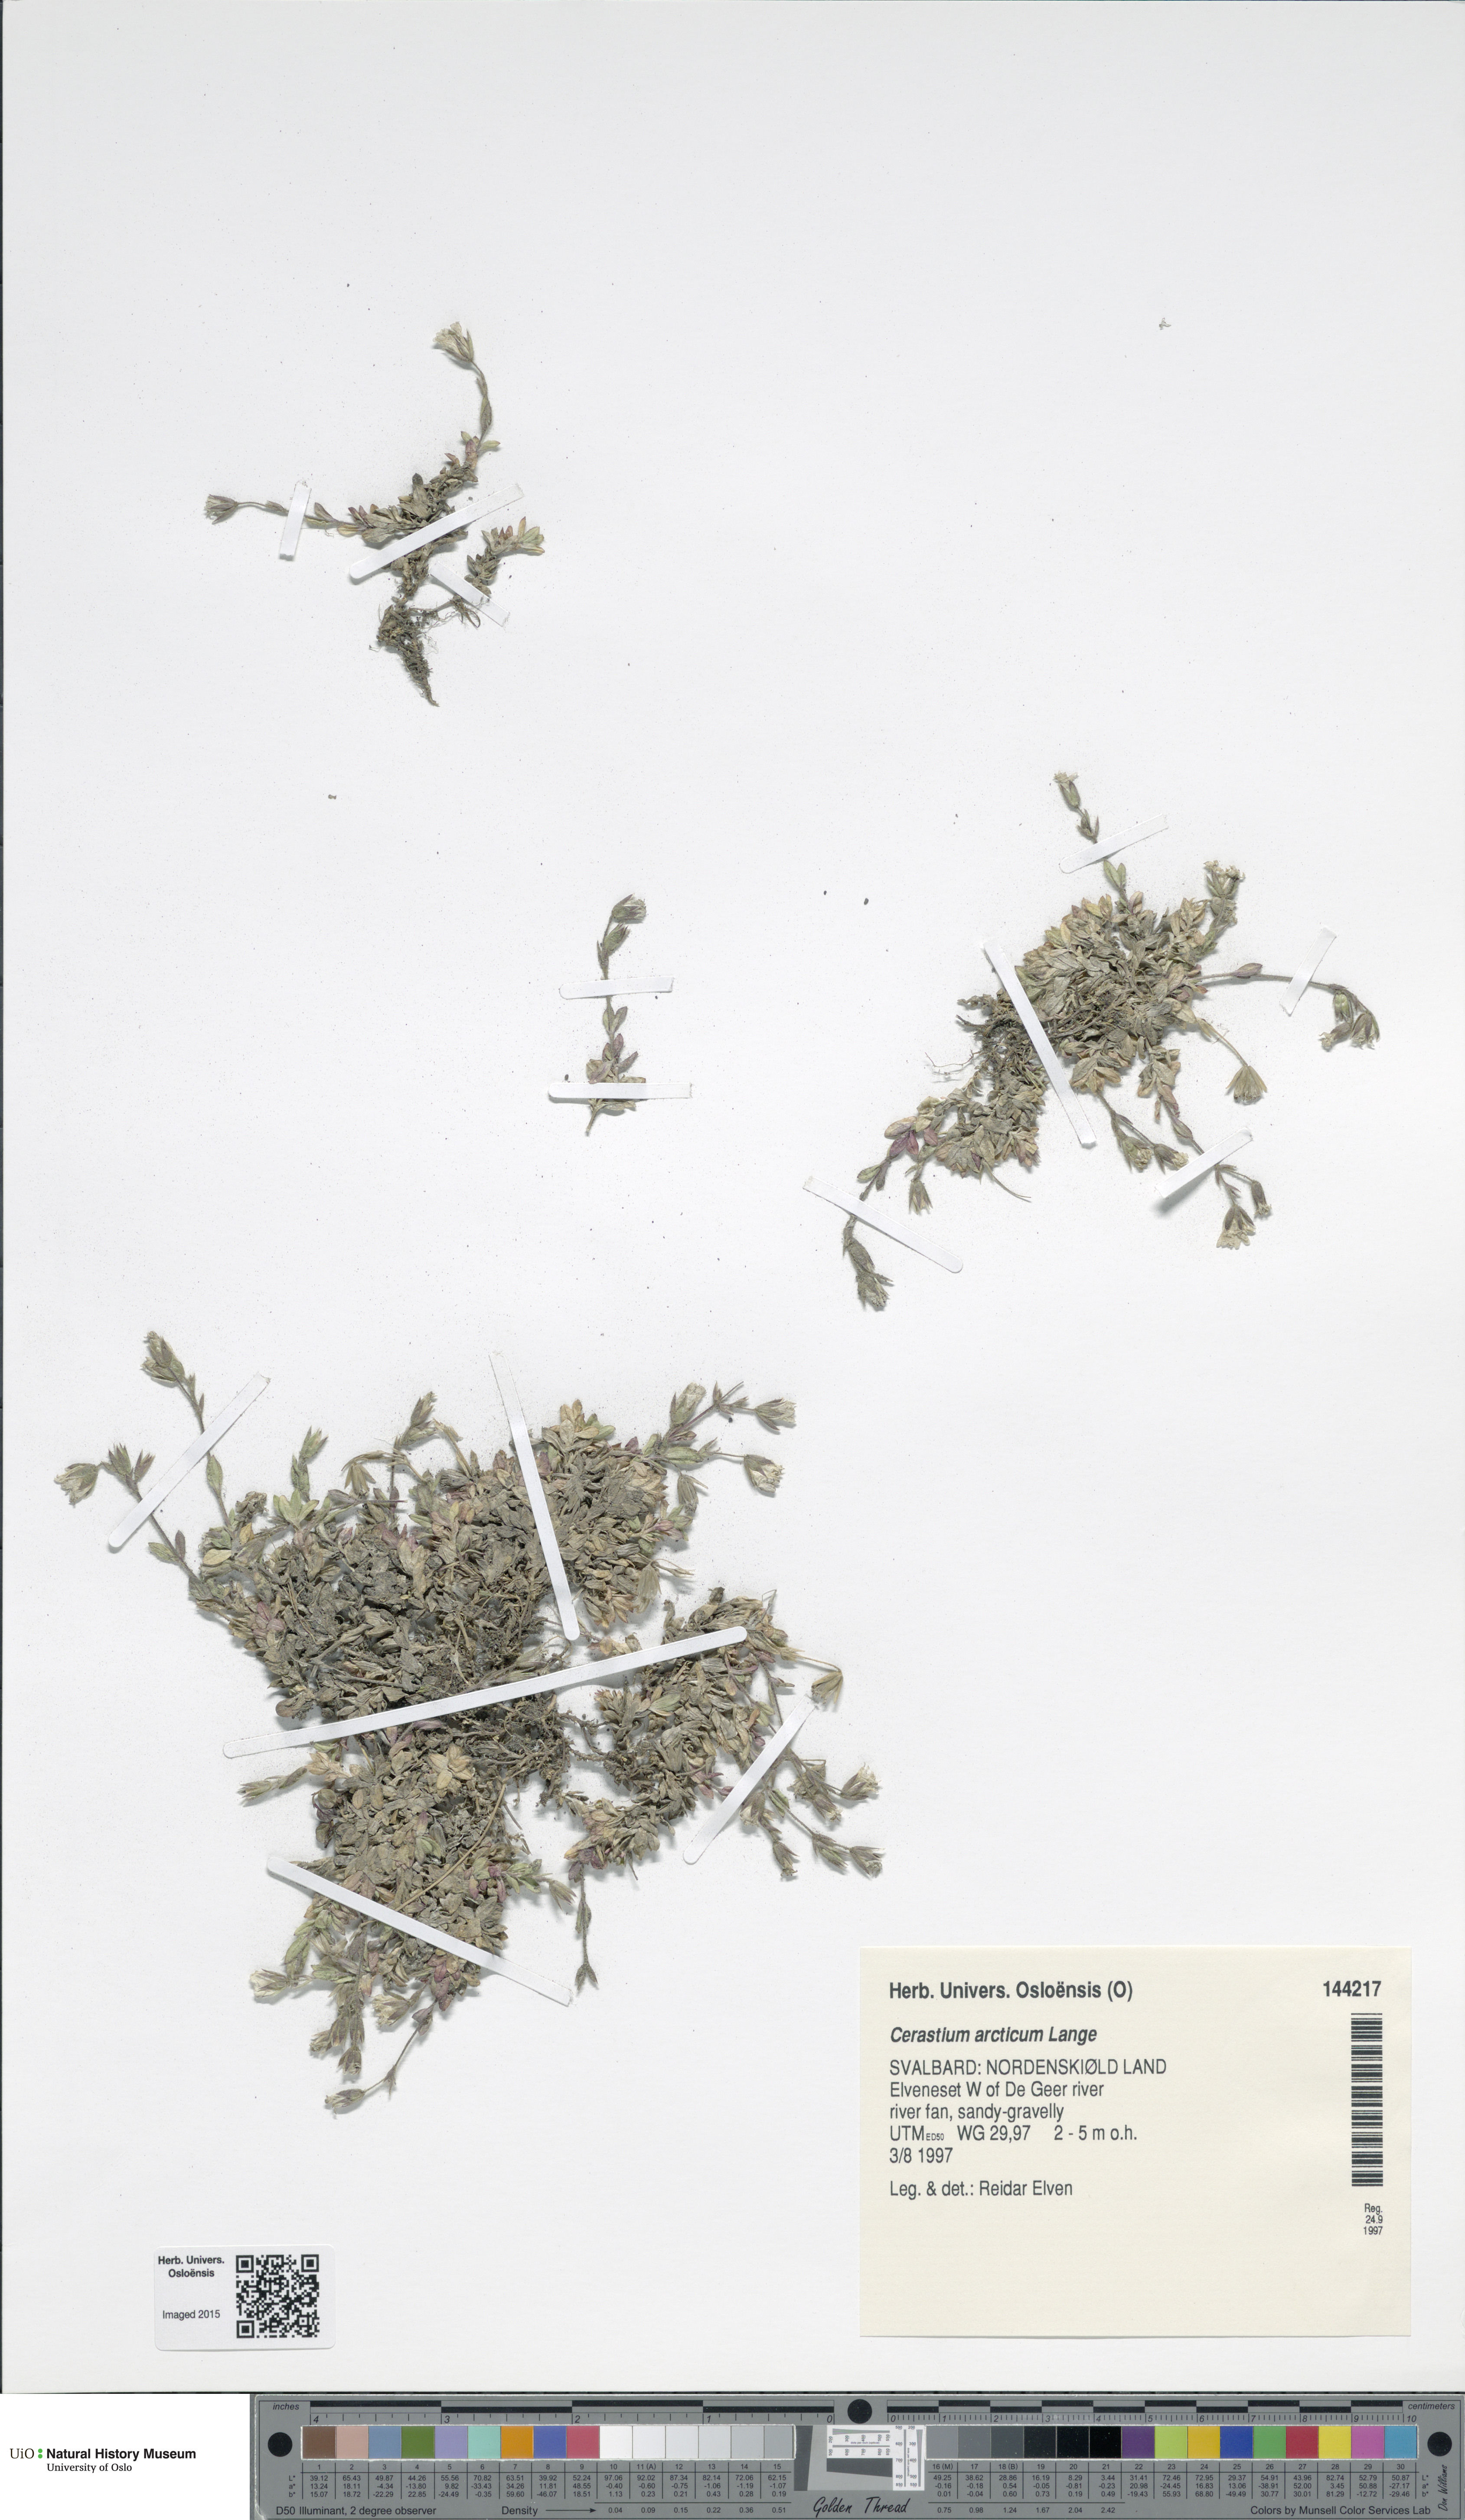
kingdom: Plantae
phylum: Tracheophyta
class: Magnoliopsida
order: Caryophyllales
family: Caryophyllaceae
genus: Cerastium
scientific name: Cerastium arcticum
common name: Arctic mouse-ear
